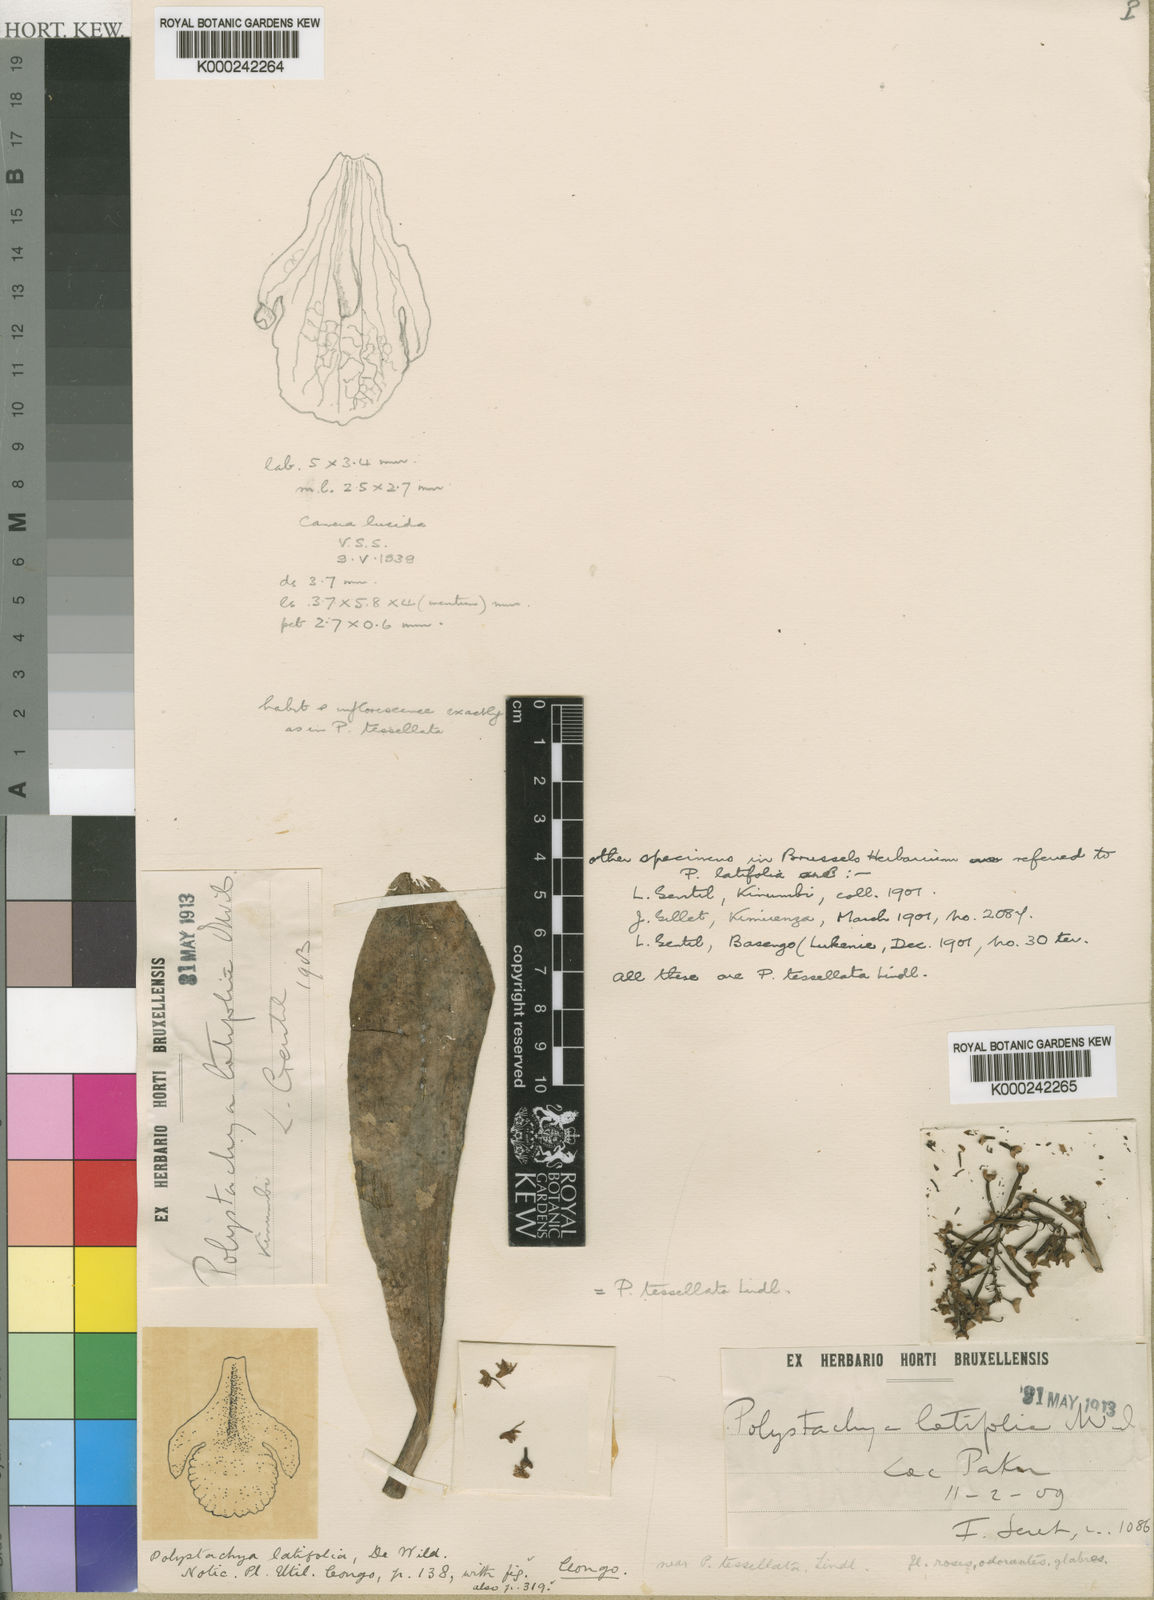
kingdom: Plantae
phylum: Tracheophyta
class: Liliopsida
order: Asparagales
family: Orchidaceae
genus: Polystachya
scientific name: Polystachya concreta
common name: Greater yellowspike orchid
